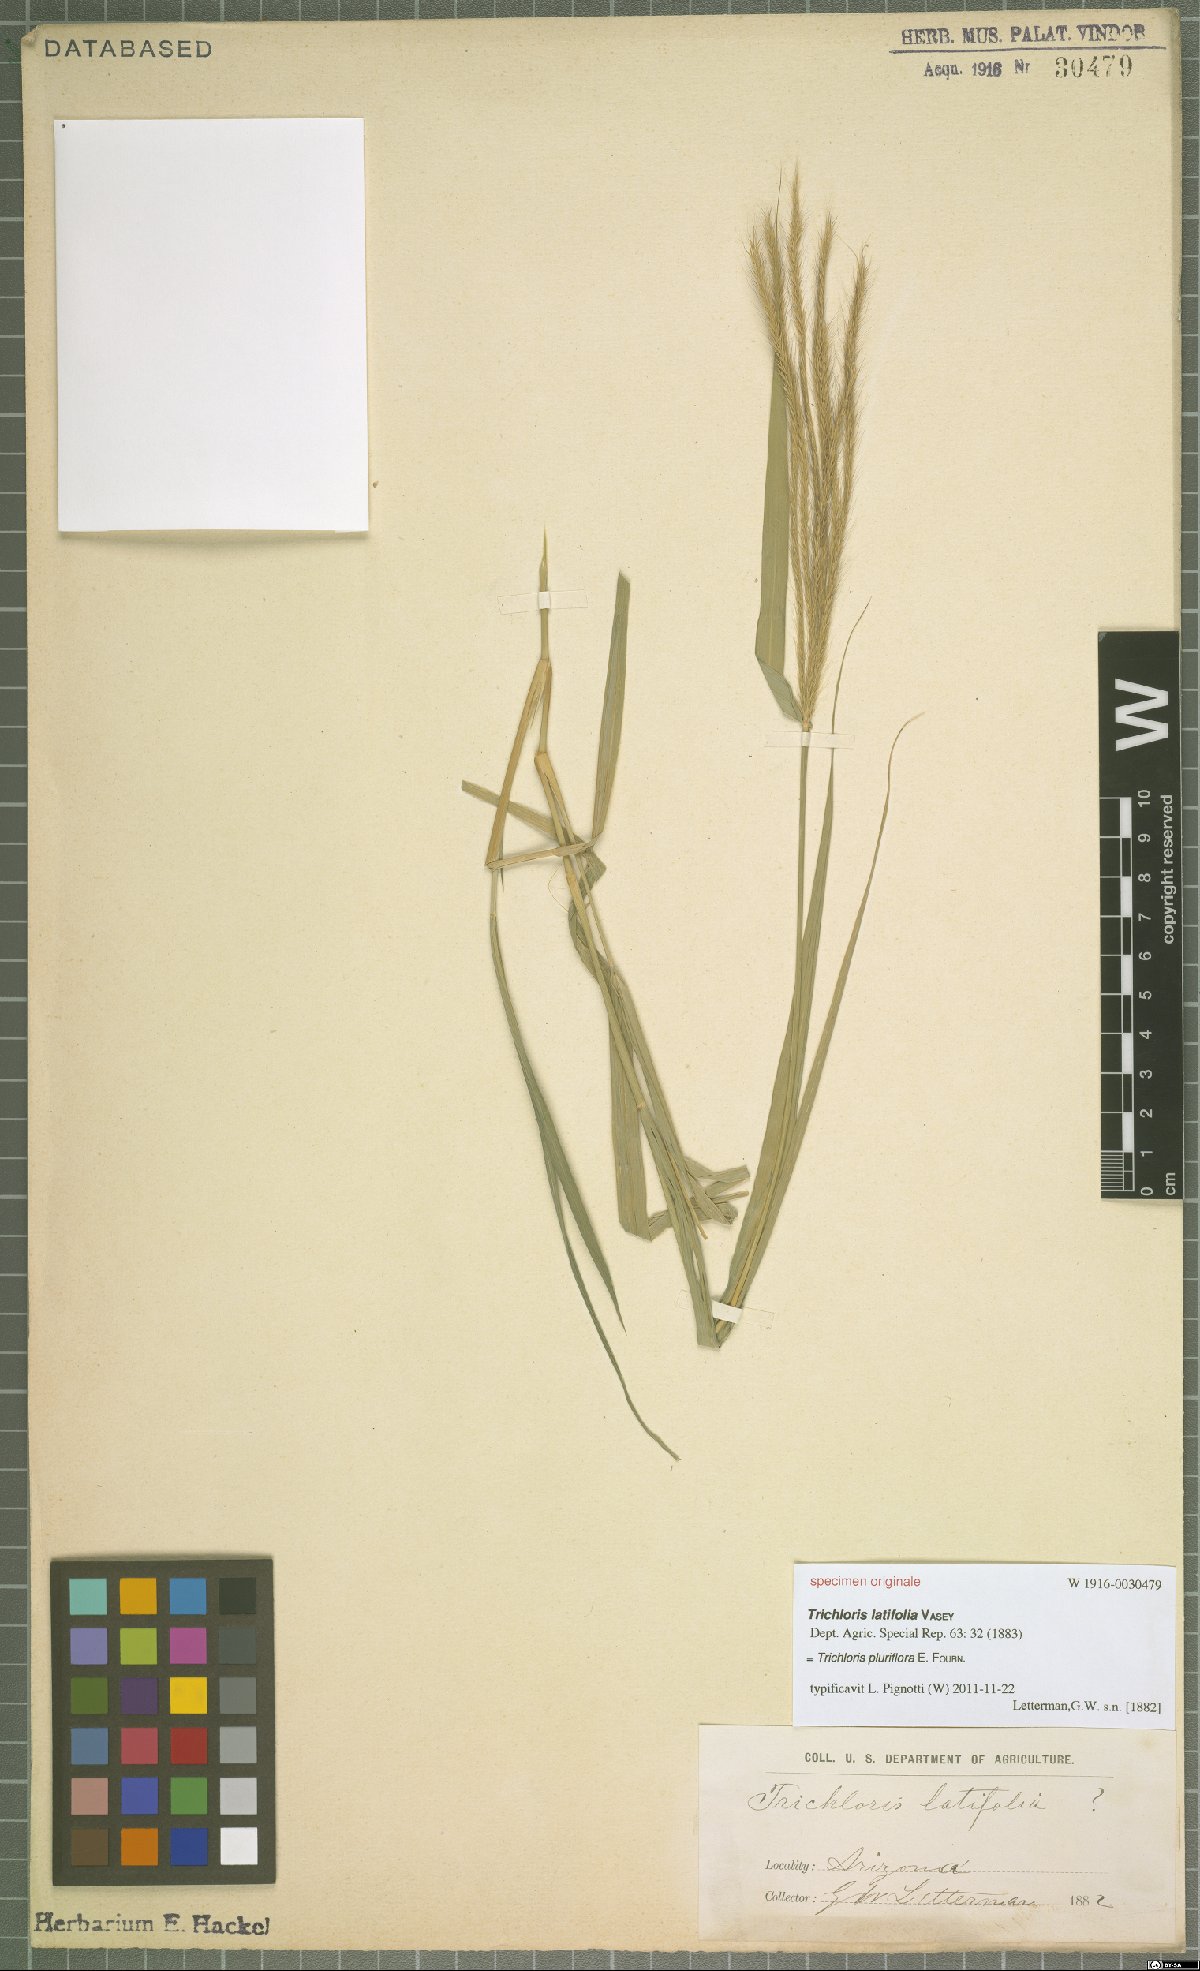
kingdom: Plantae
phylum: Tracheophyta
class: Liliopsida
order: Poales
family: Poaceae
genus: Leptochloa
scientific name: Leptochloa pluriflora
